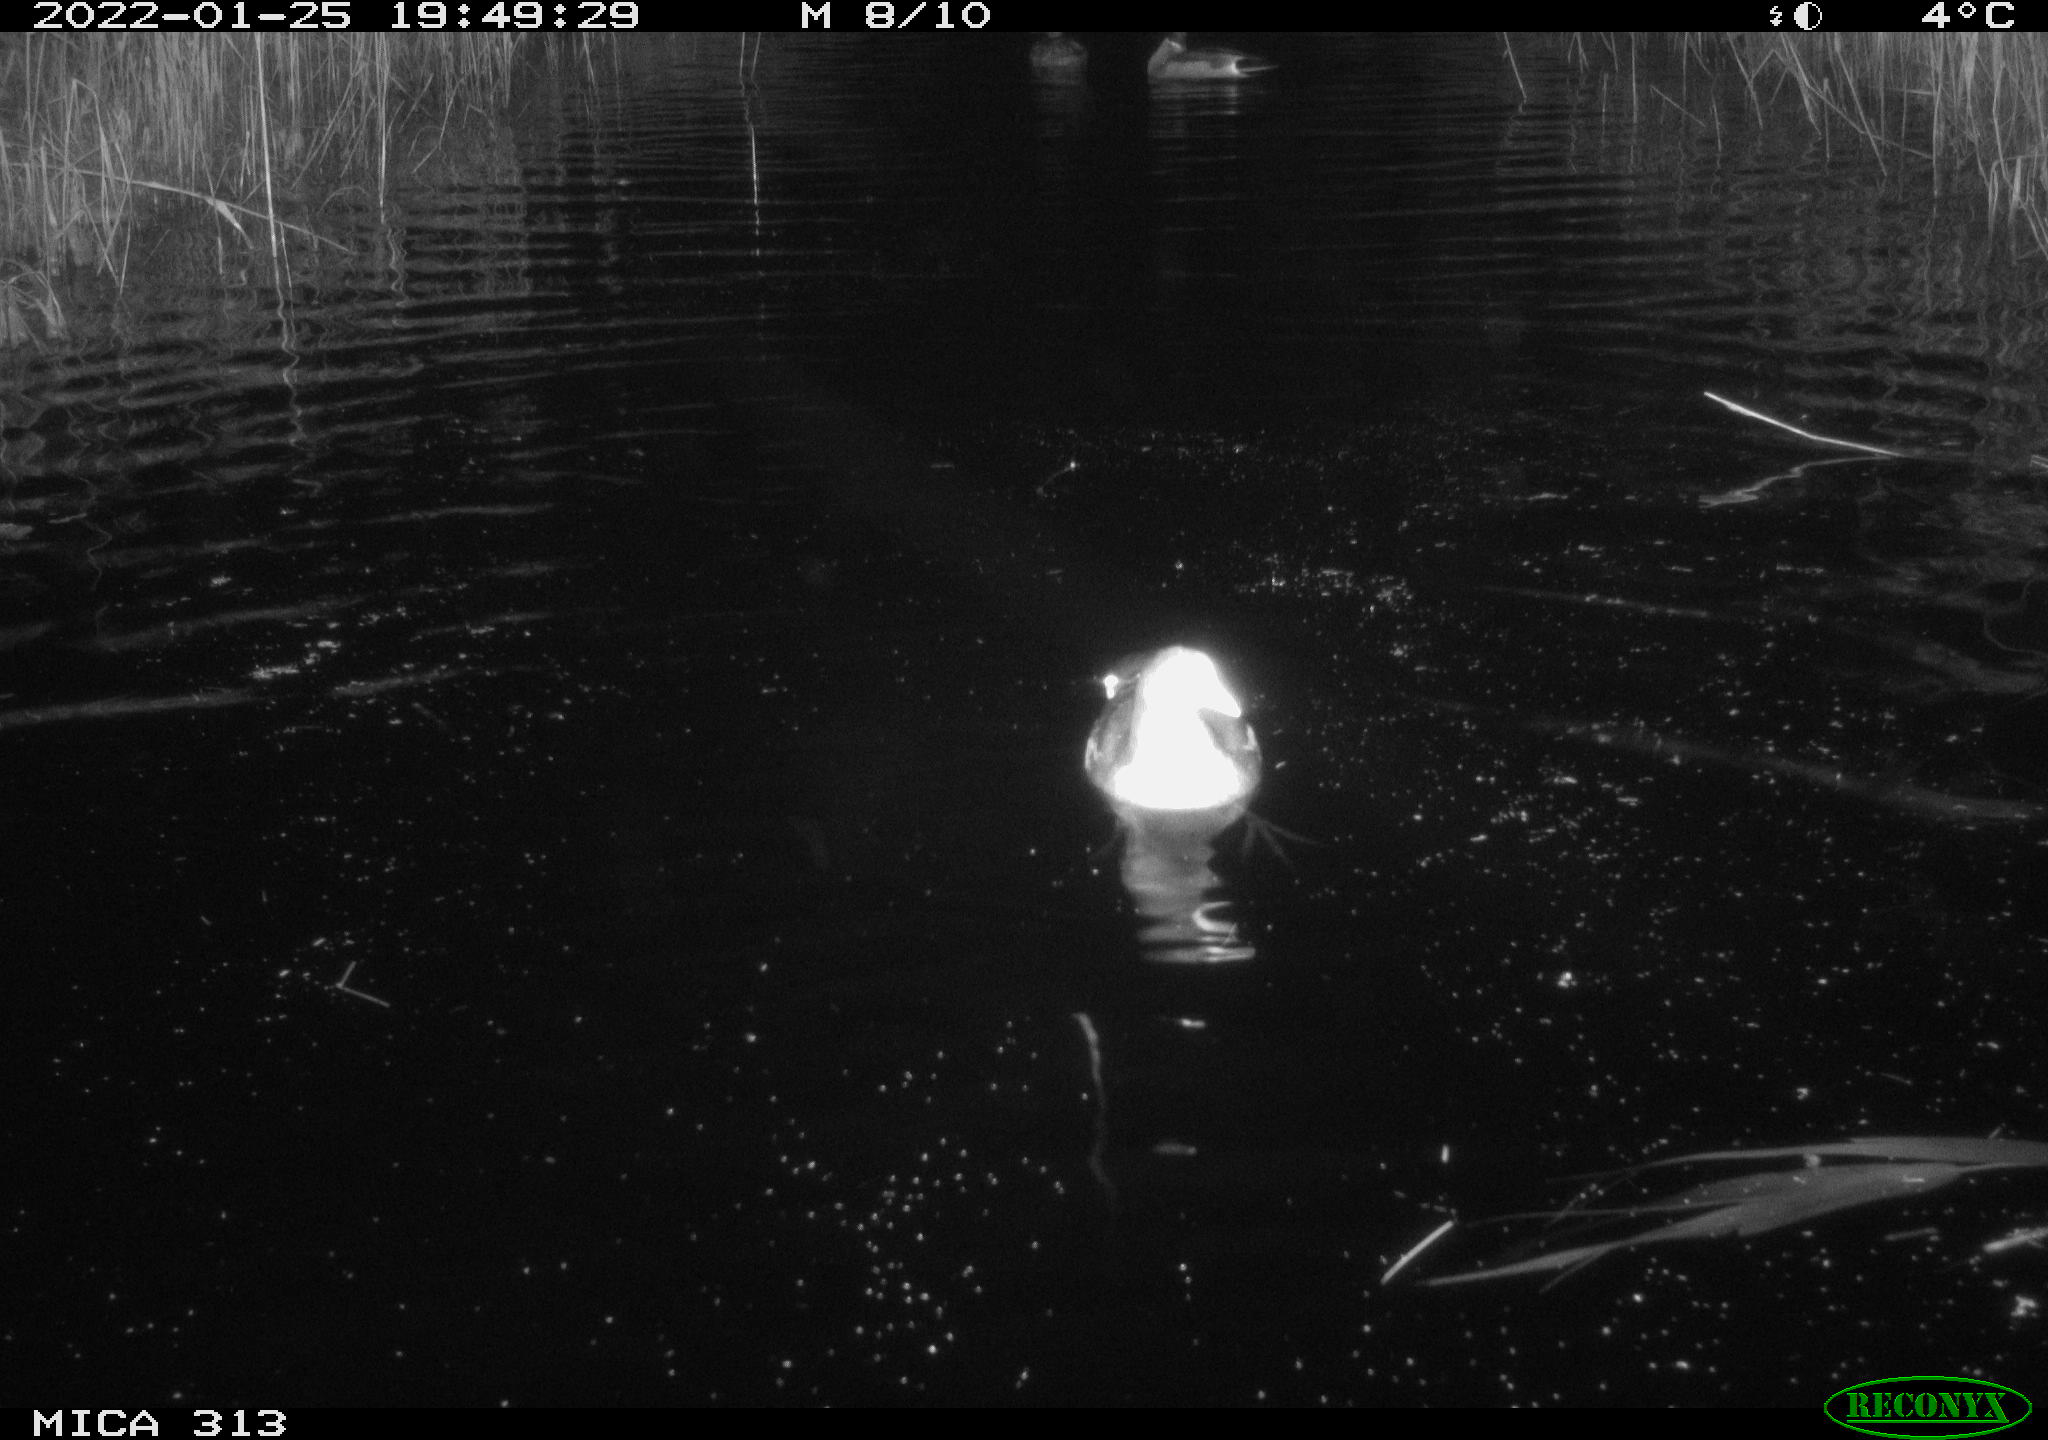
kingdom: Animalia
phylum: Chordata
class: Aves
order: Gruiformes
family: Rallidae
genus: Gallinula
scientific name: Gallinula chloropus
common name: Common moorhen
